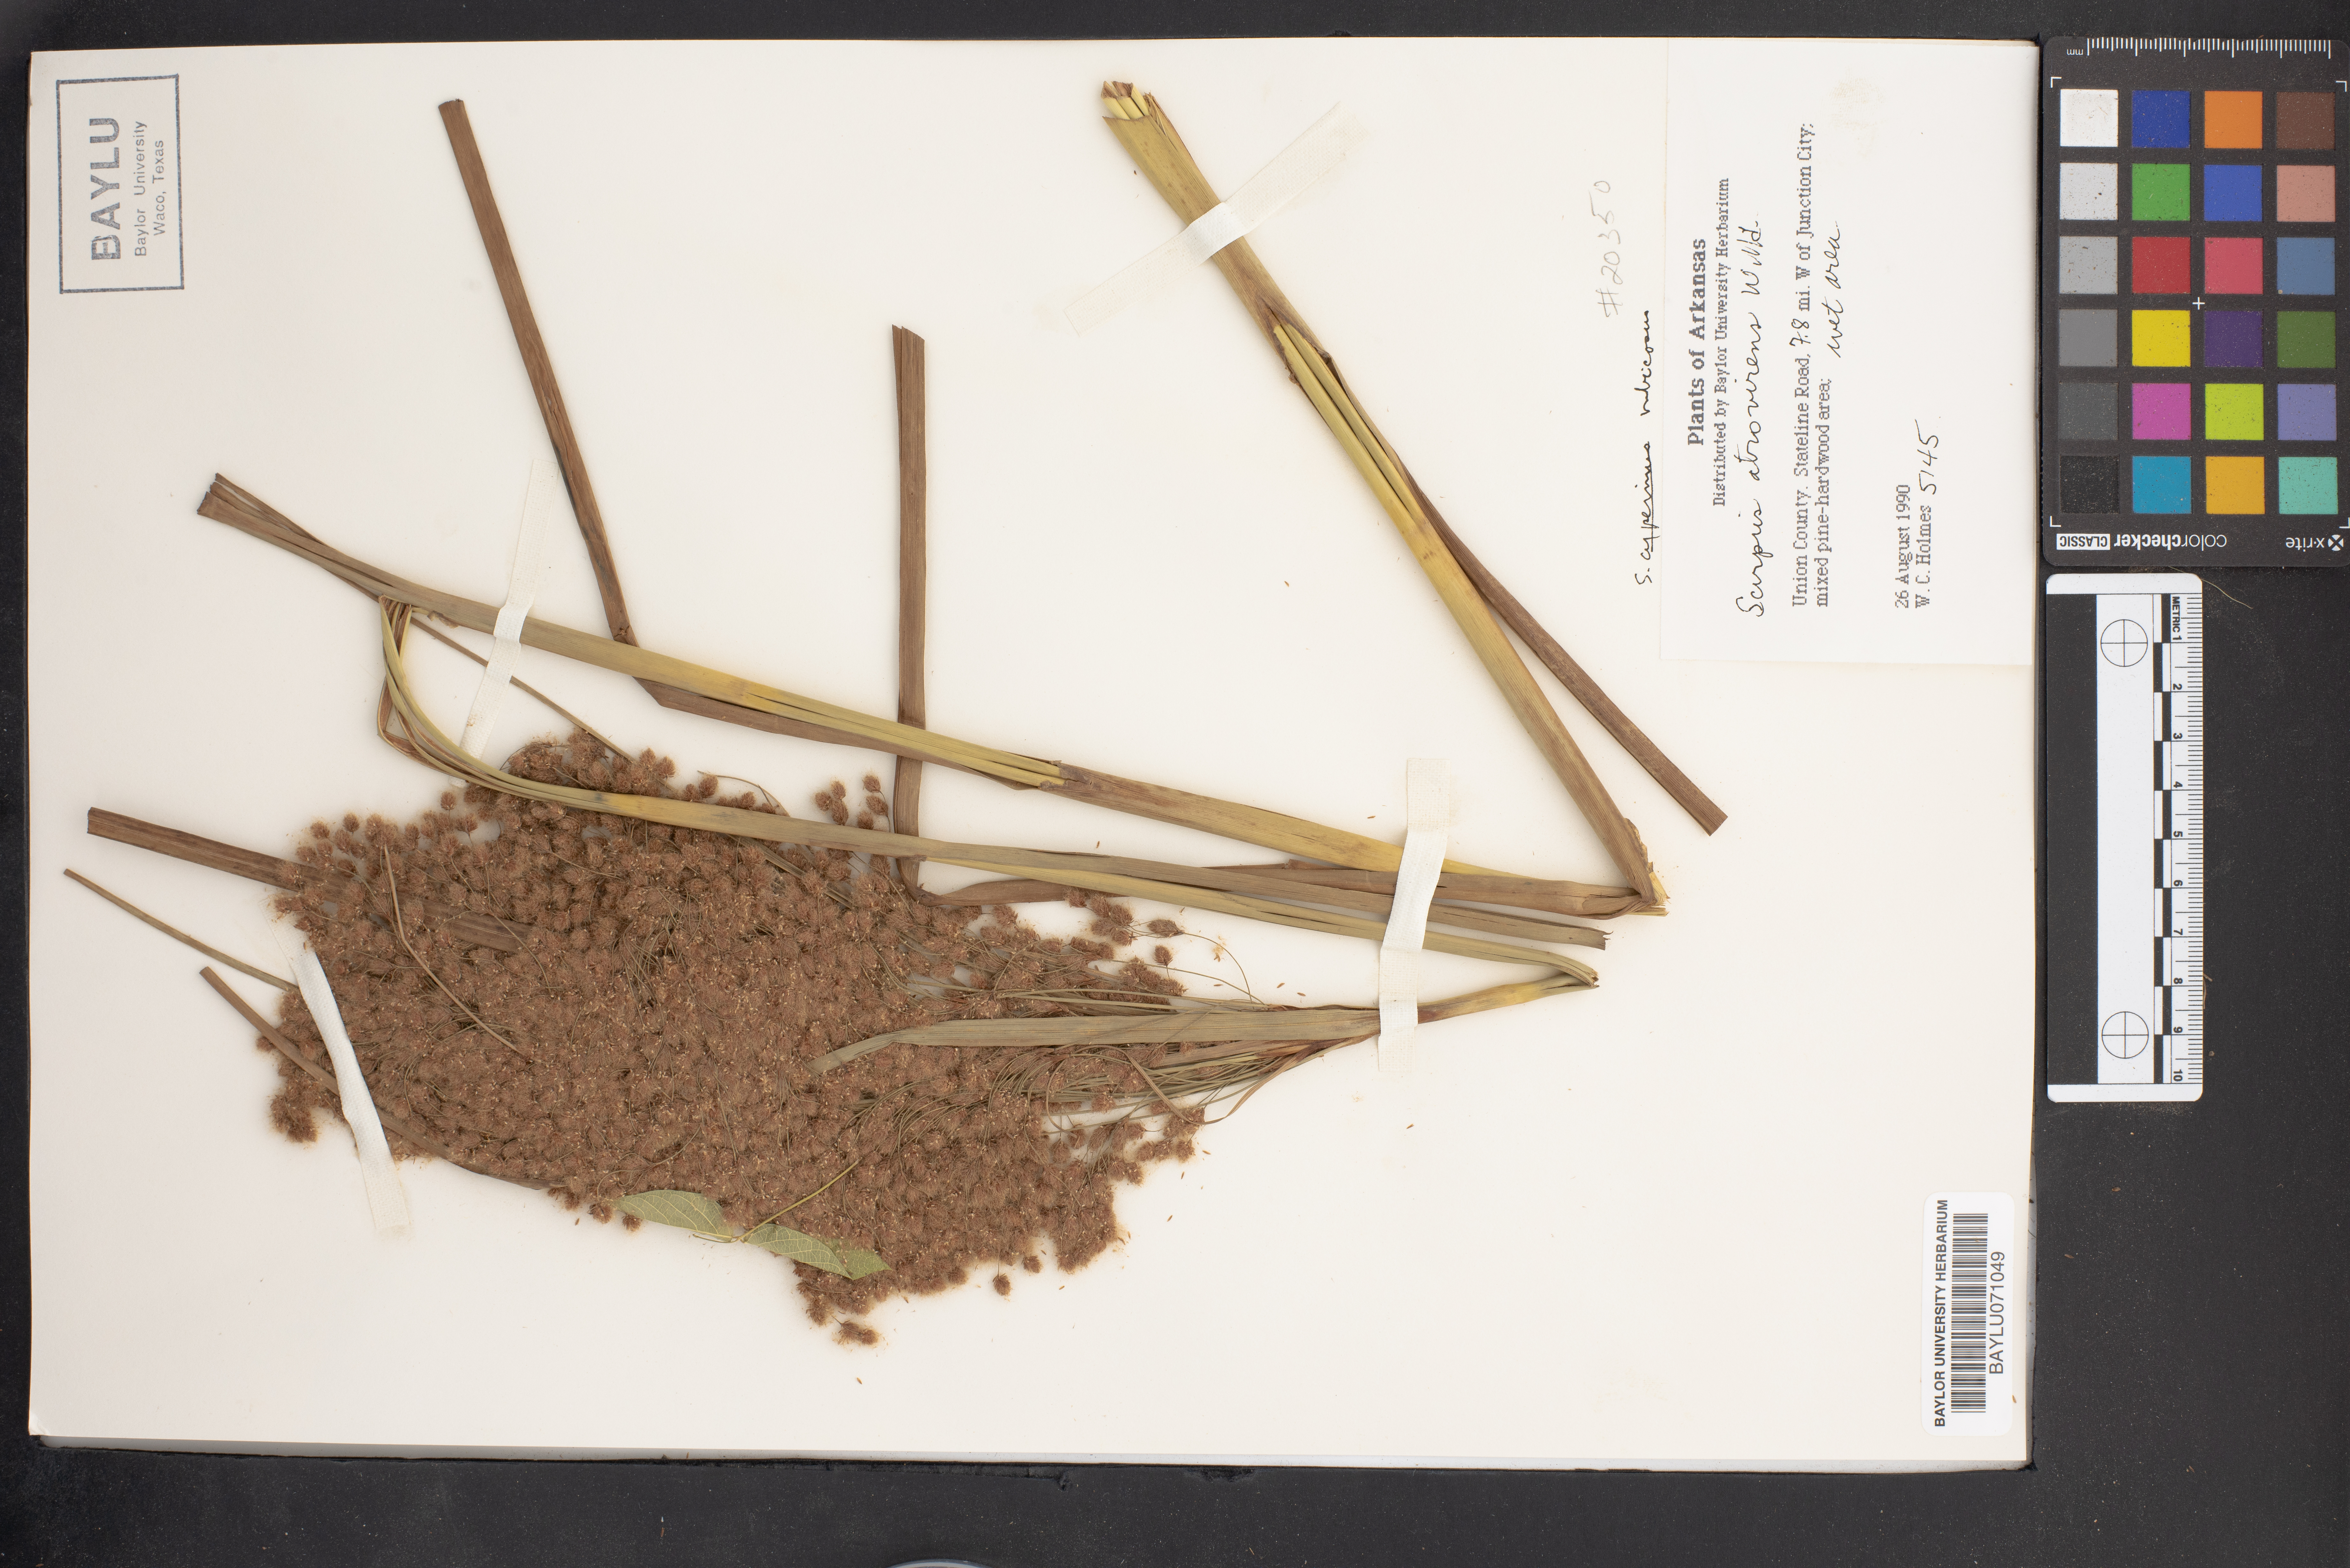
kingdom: Plantae
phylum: Tracheophyta
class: Liliopsida
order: Poales
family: Cyperaceae
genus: Scirpus
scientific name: Scirpus cyperinus
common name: Black-sheathed bulrush
